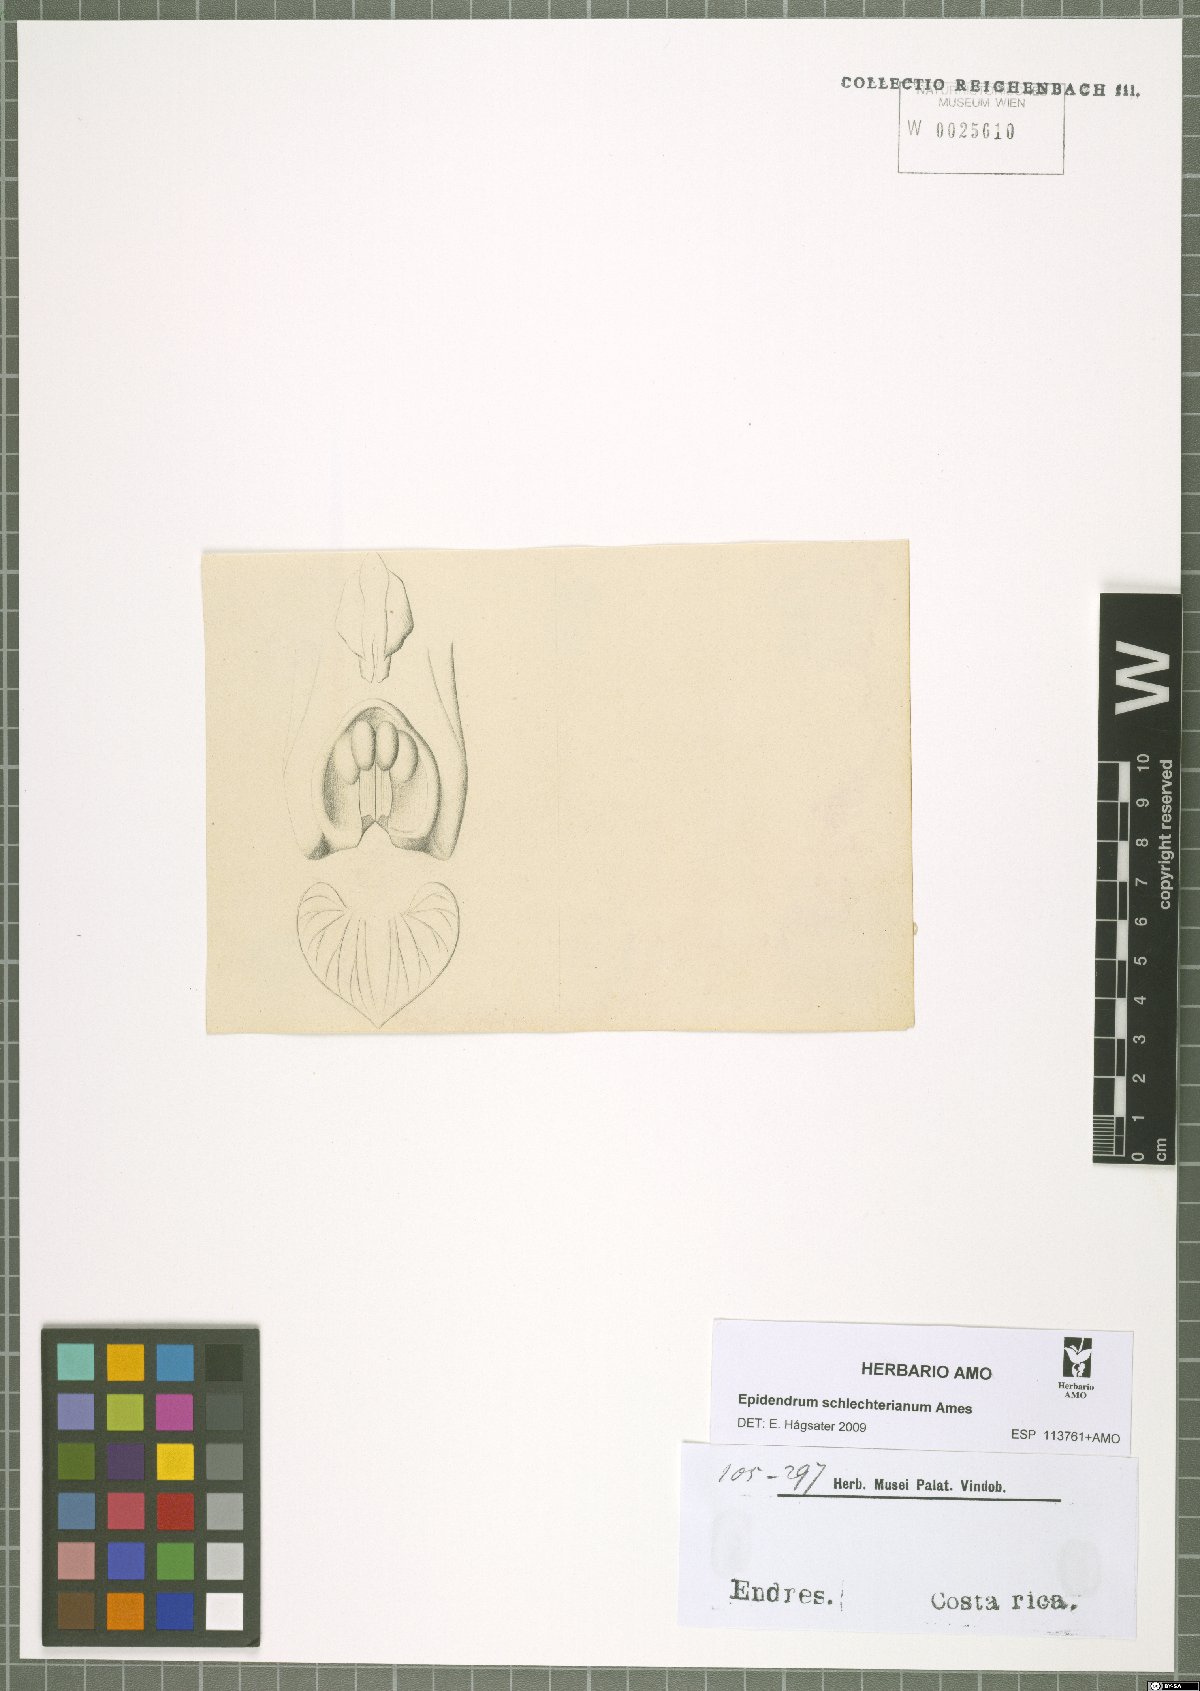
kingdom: Plantae
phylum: Tracheophyta
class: Liliopsida
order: Asparagales
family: Orchidaceae
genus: Epidendrum
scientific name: Epidendrum schlechterianum
